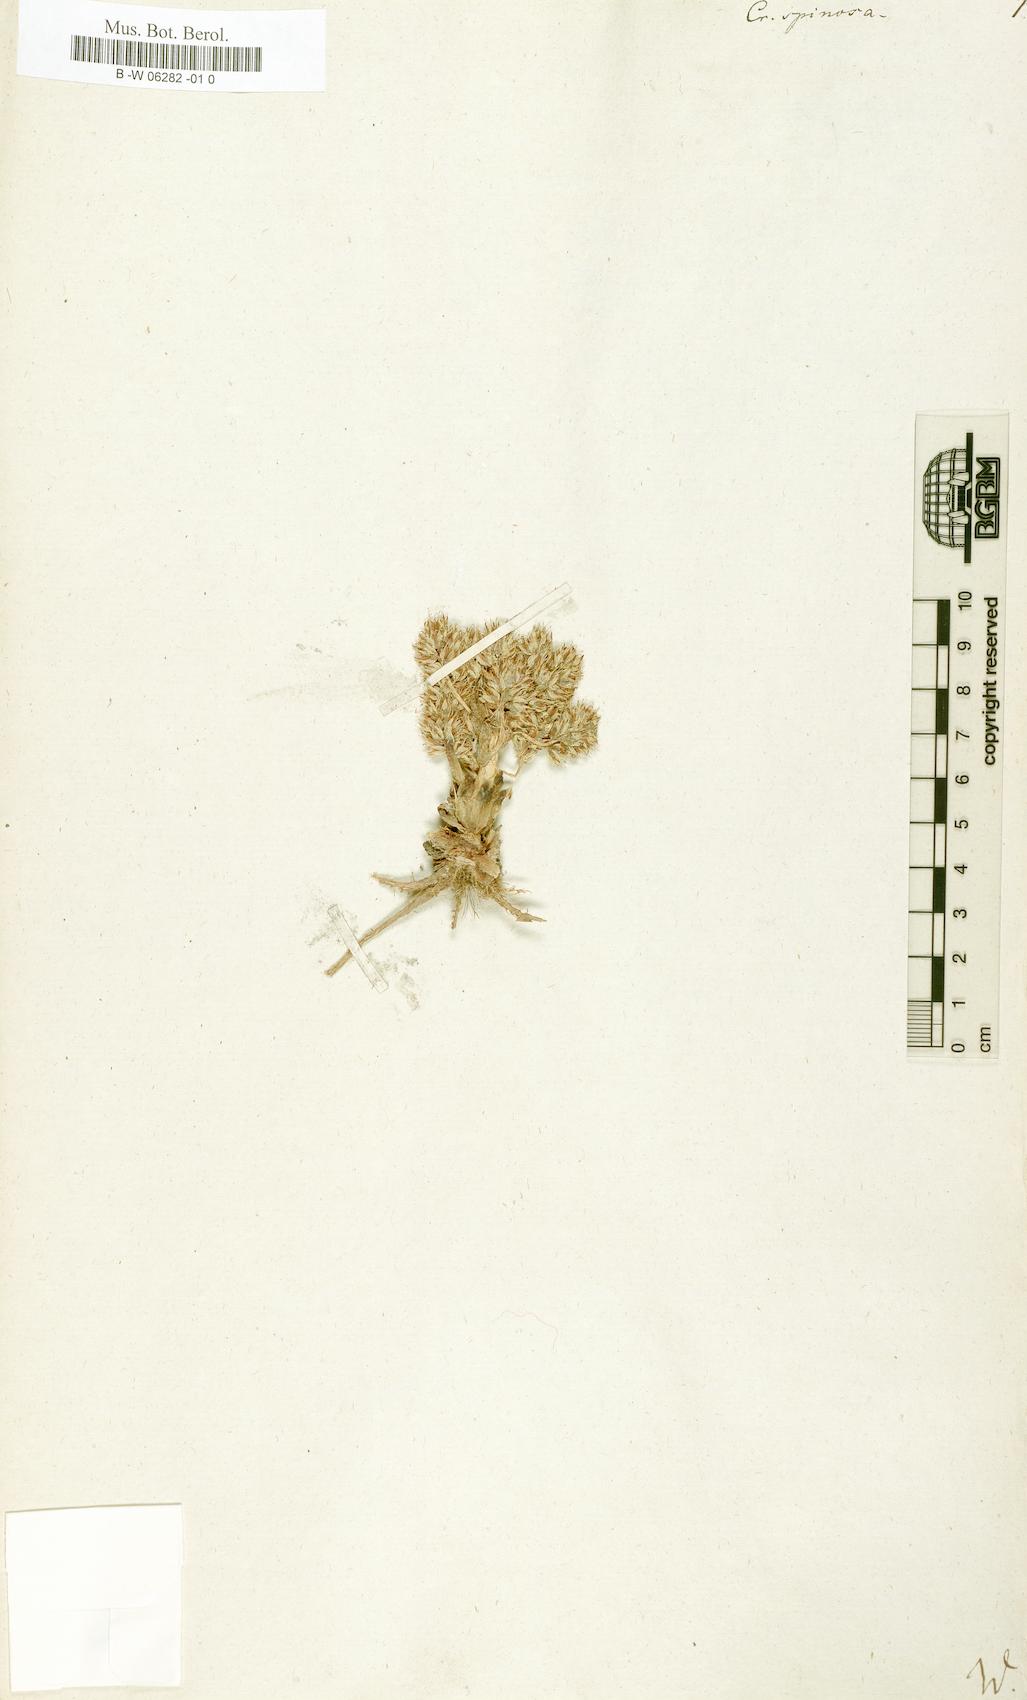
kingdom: Plantae
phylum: Tracheophyta
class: Magnoliopsida
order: Saxifragales
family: Crassulaceae
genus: Orostachys
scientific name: Orostachys spinosa
